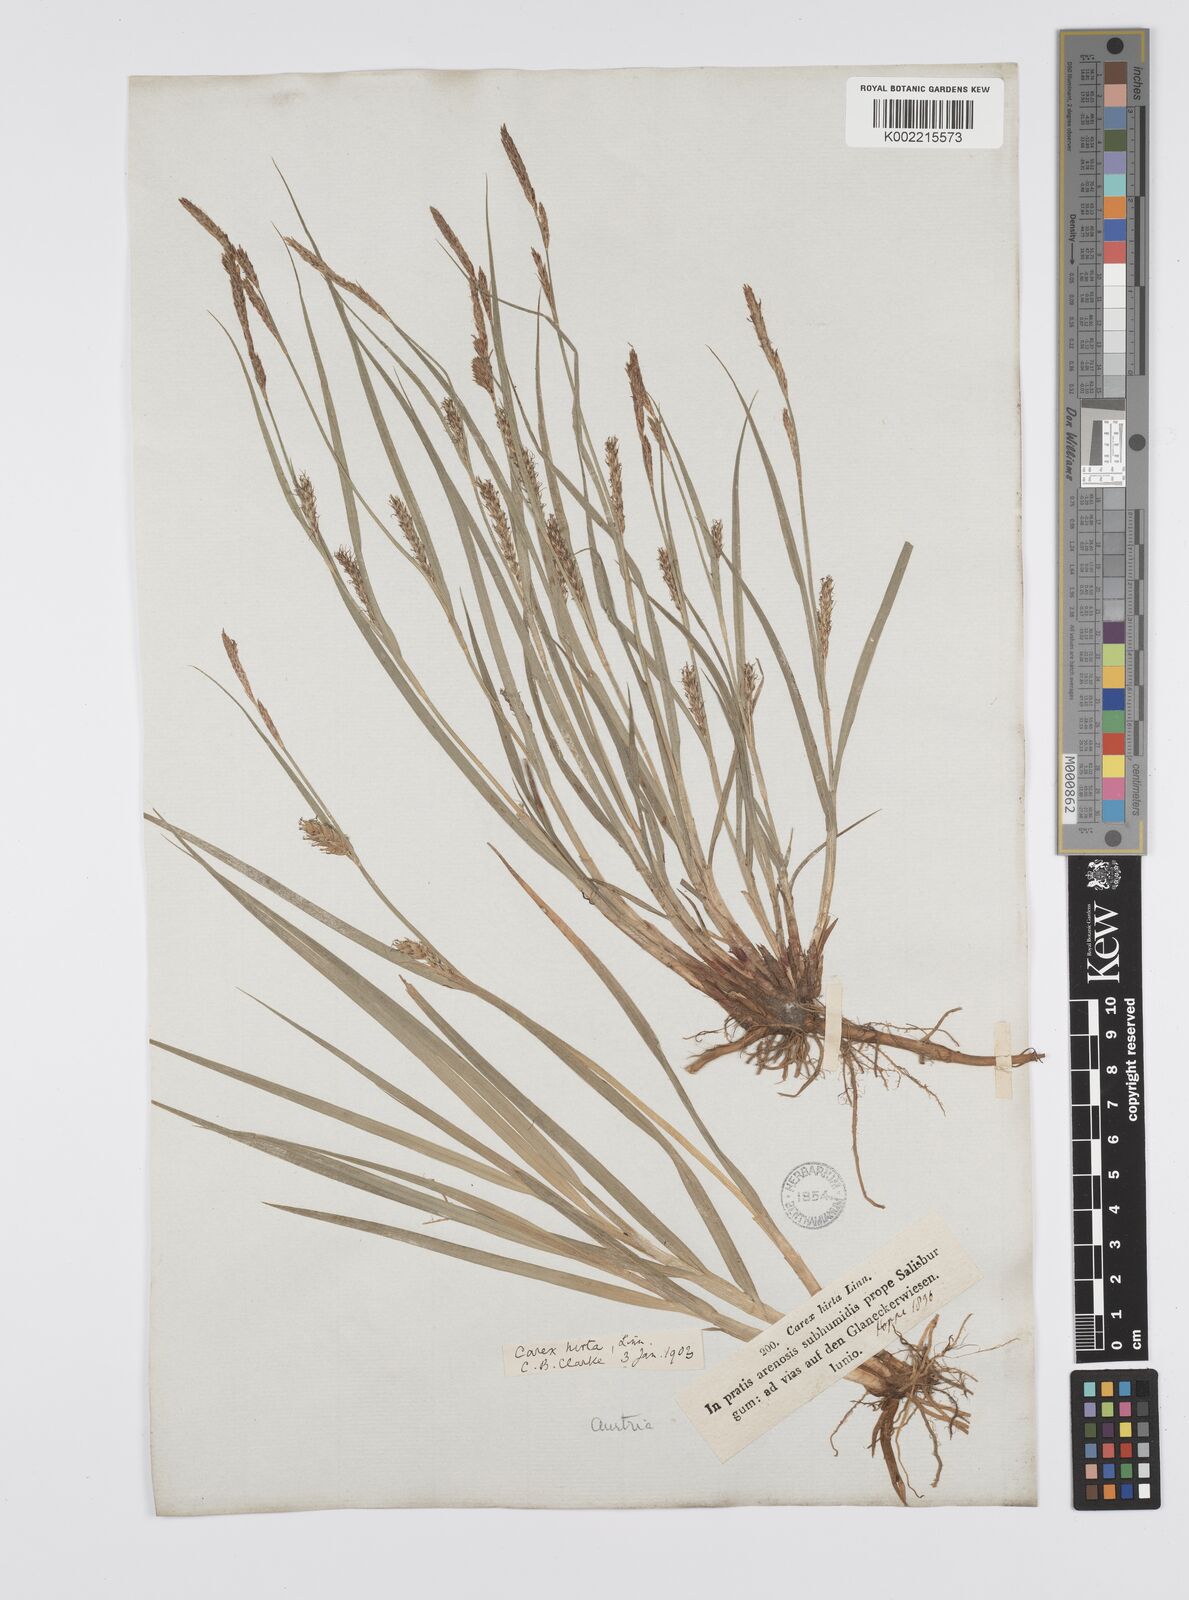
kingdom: Plantae
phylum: Tracheophyta
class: Liliopsida
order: Poales
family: Cyperaceae
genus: Carex
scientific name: Carex hirta
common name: Hairy sedge
